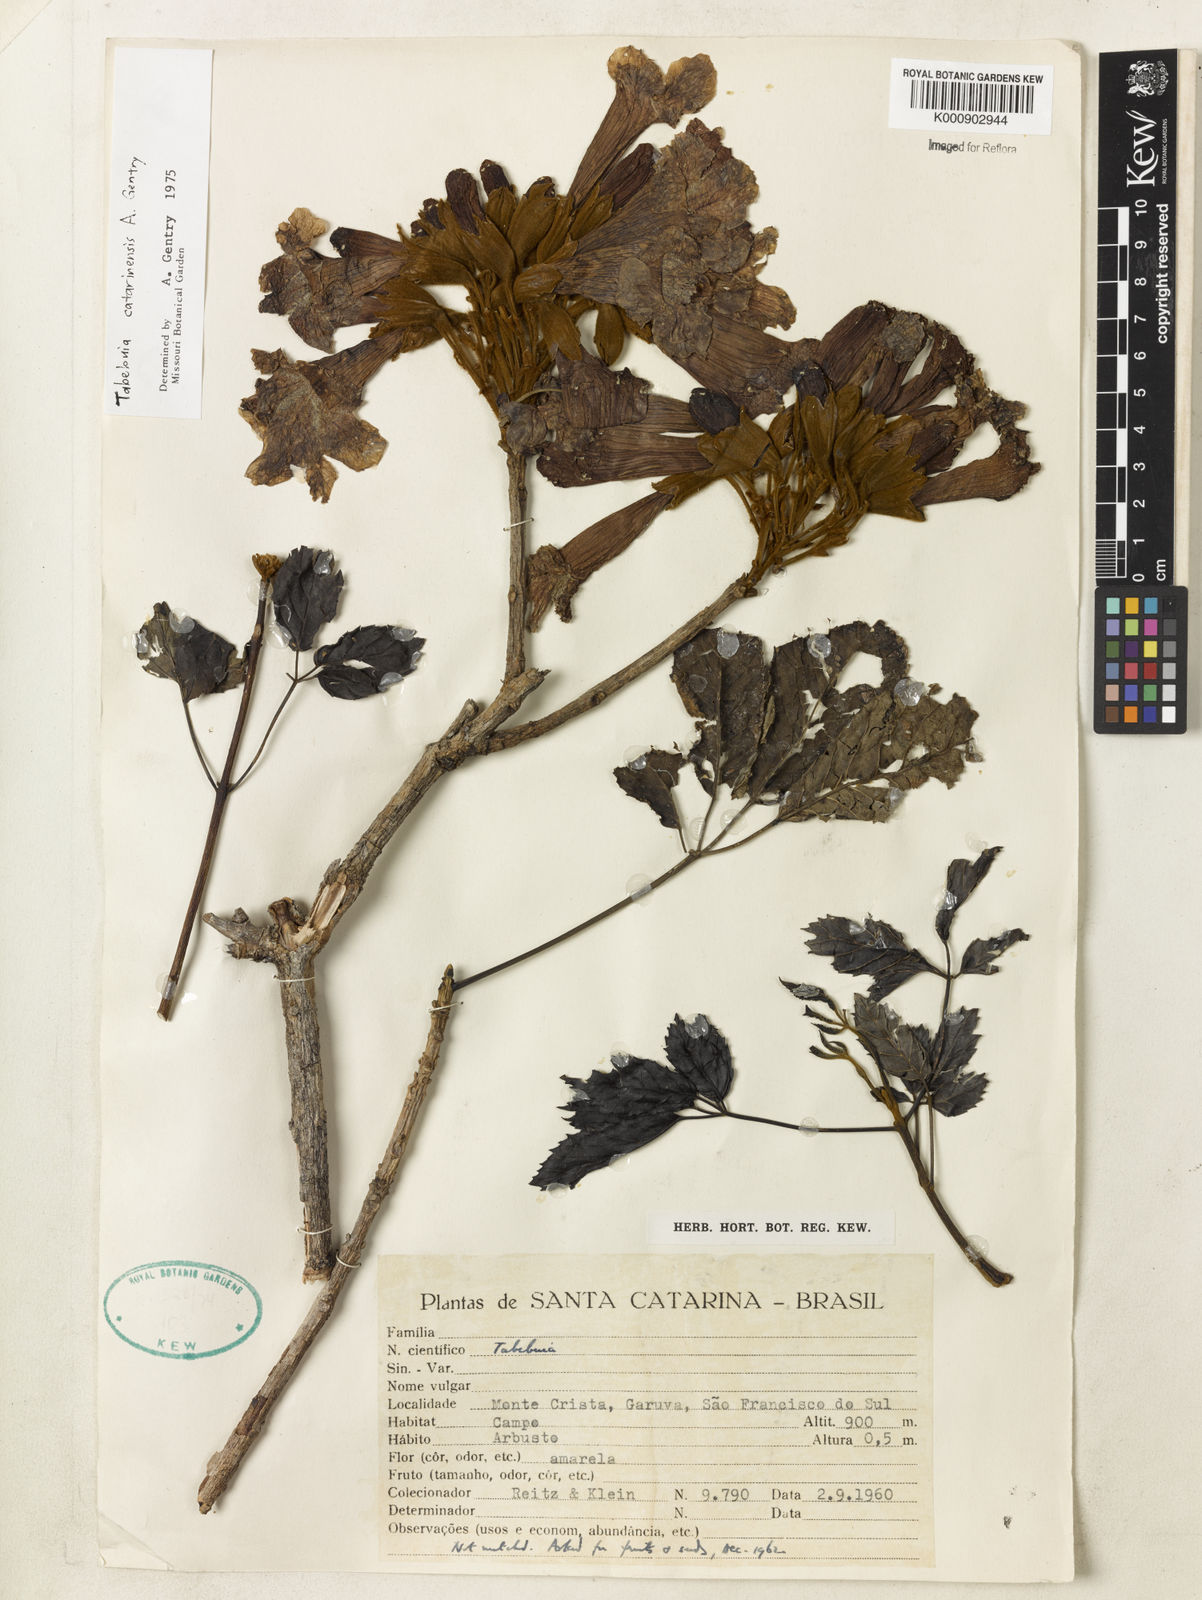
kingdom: Plantae
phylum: Tracheophyta
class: Magnoliopsida
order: Lamiales
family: Bignoniaceae
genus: Handroanthus
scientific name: Handroanthus catarinensis
